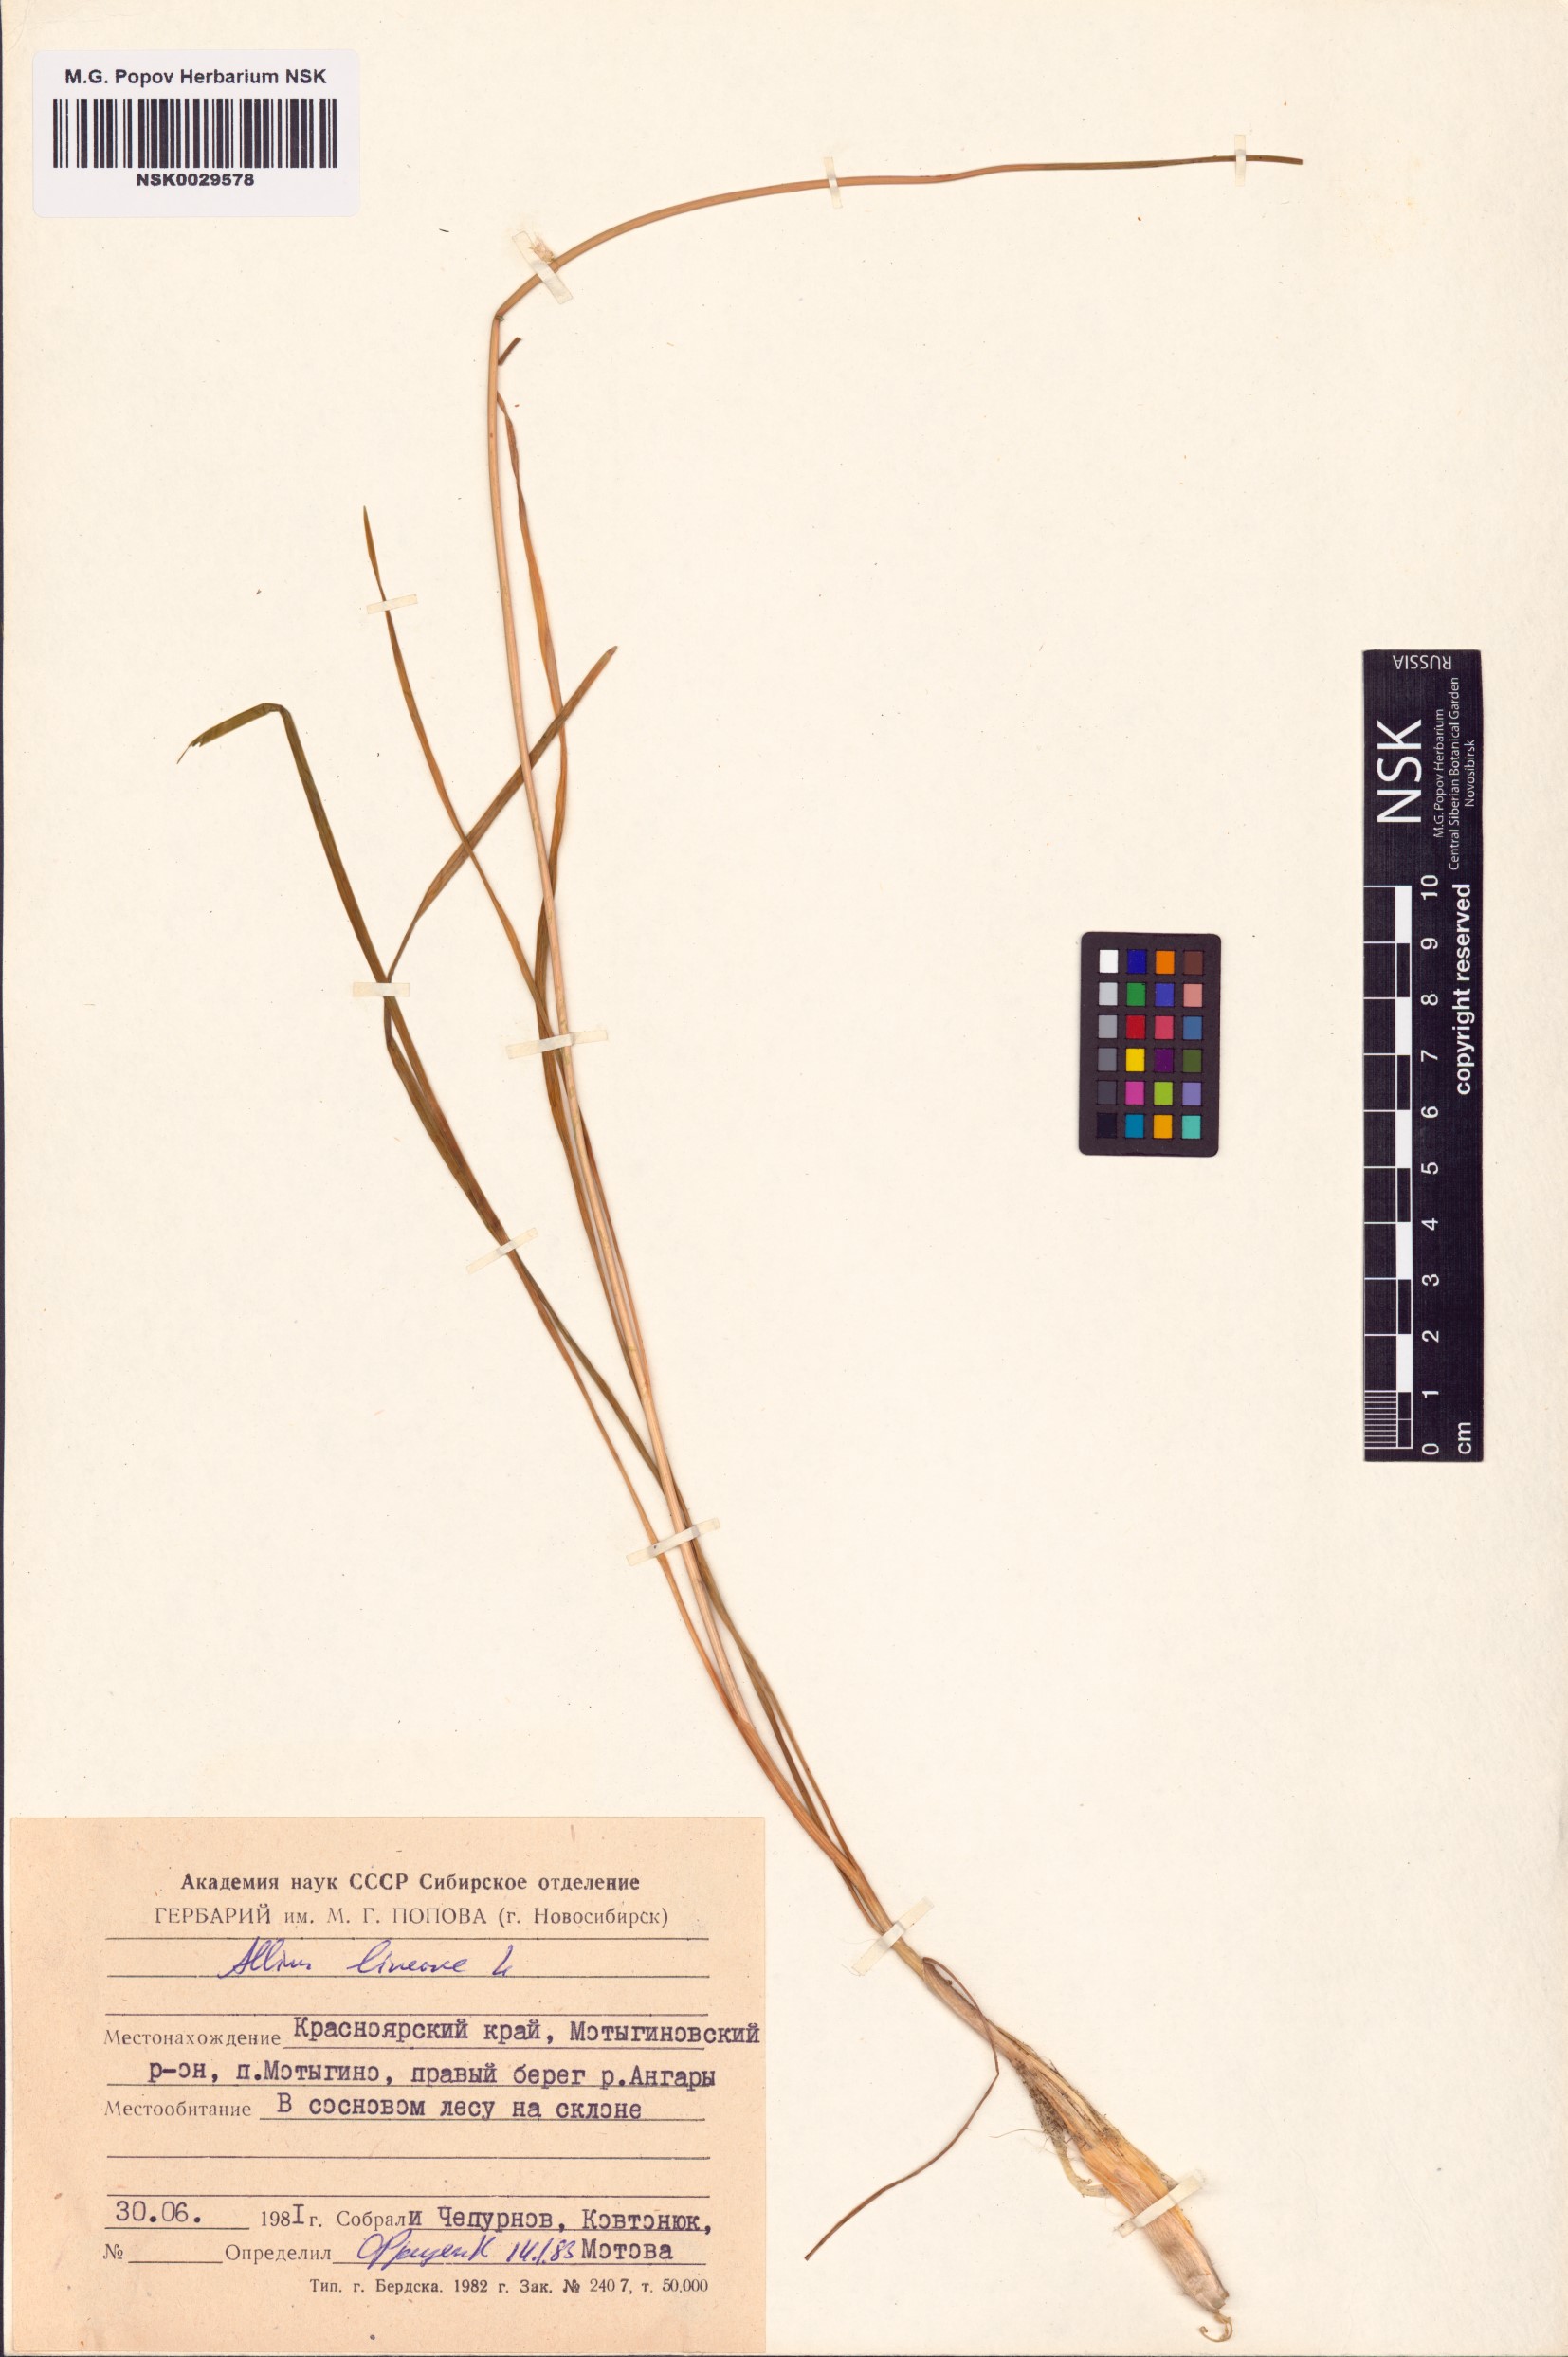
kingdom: Plantae
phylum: Tracheophyta
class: Liliopsida
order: Asparagales
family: Amaryllidaceae
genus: Allium
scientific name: Allium lineare
